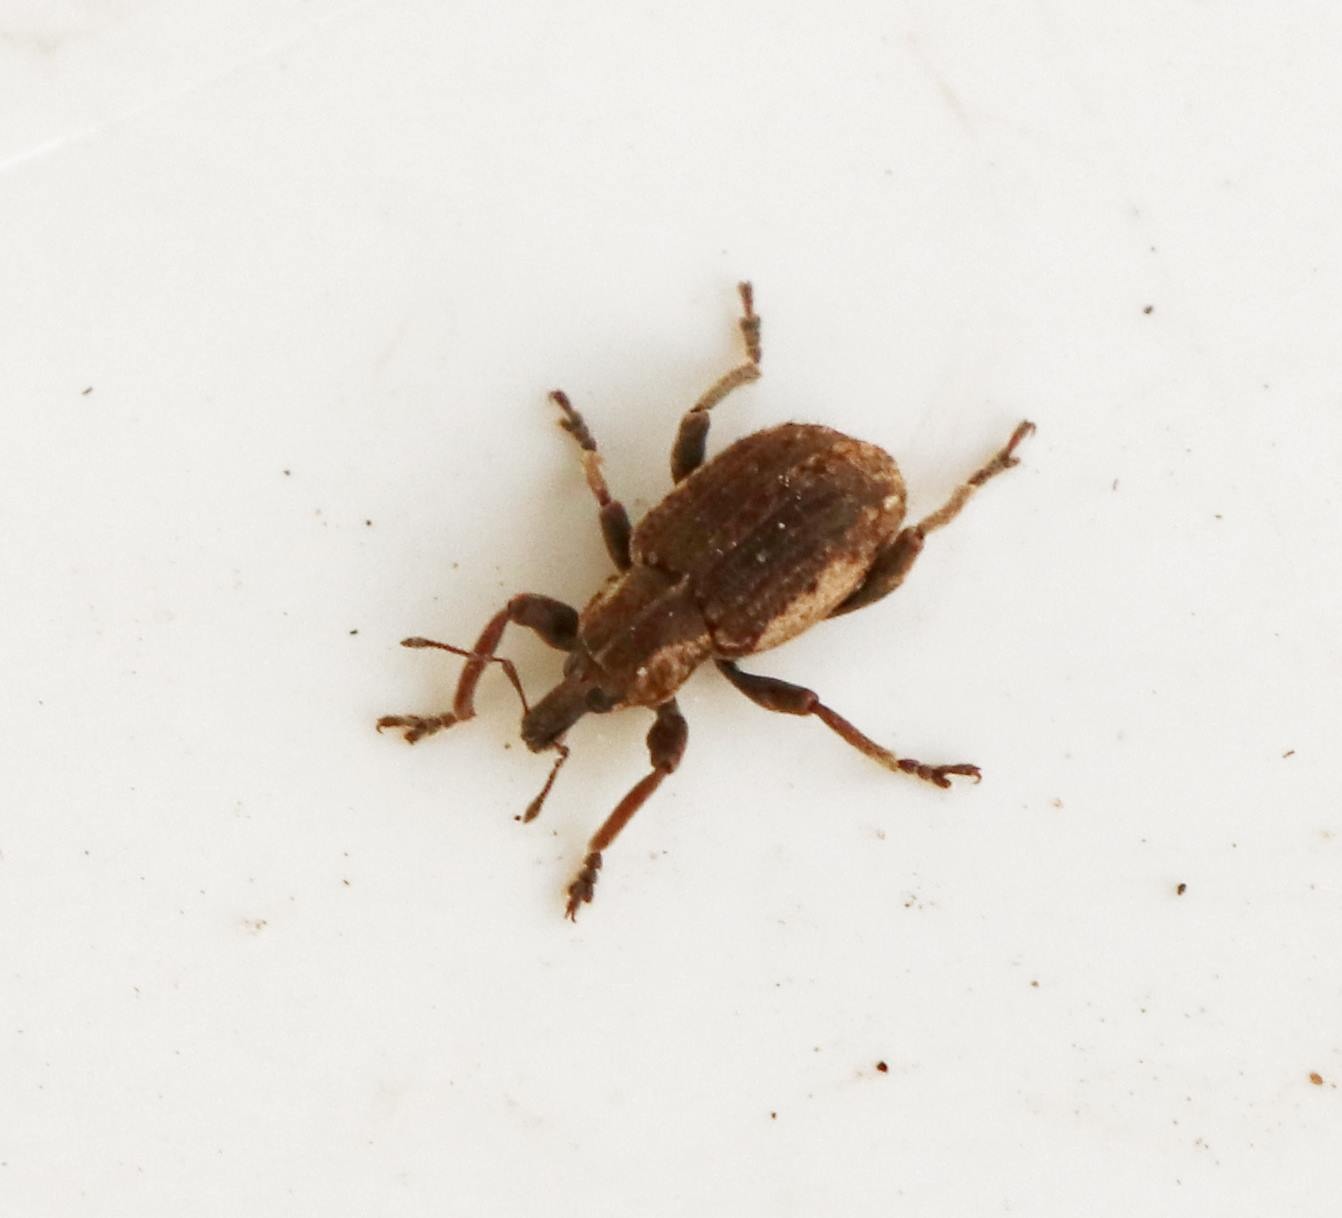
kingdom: Animalia
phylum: Arthropoda
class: Insecta
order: Coleoptera
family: Curculionidae
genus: Brachypera
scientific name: Brachypera zoilus
